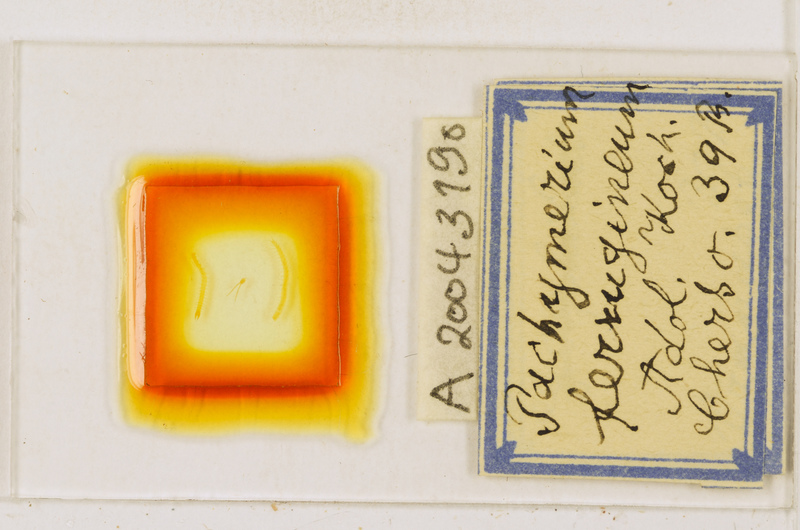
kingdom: Animalia
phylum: Arthropoda
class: Chilopoda
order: Geophilomorpha
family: Geophilidae
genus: Pachymerium
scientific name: Pachymerium ferrugineum
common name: Centipede
